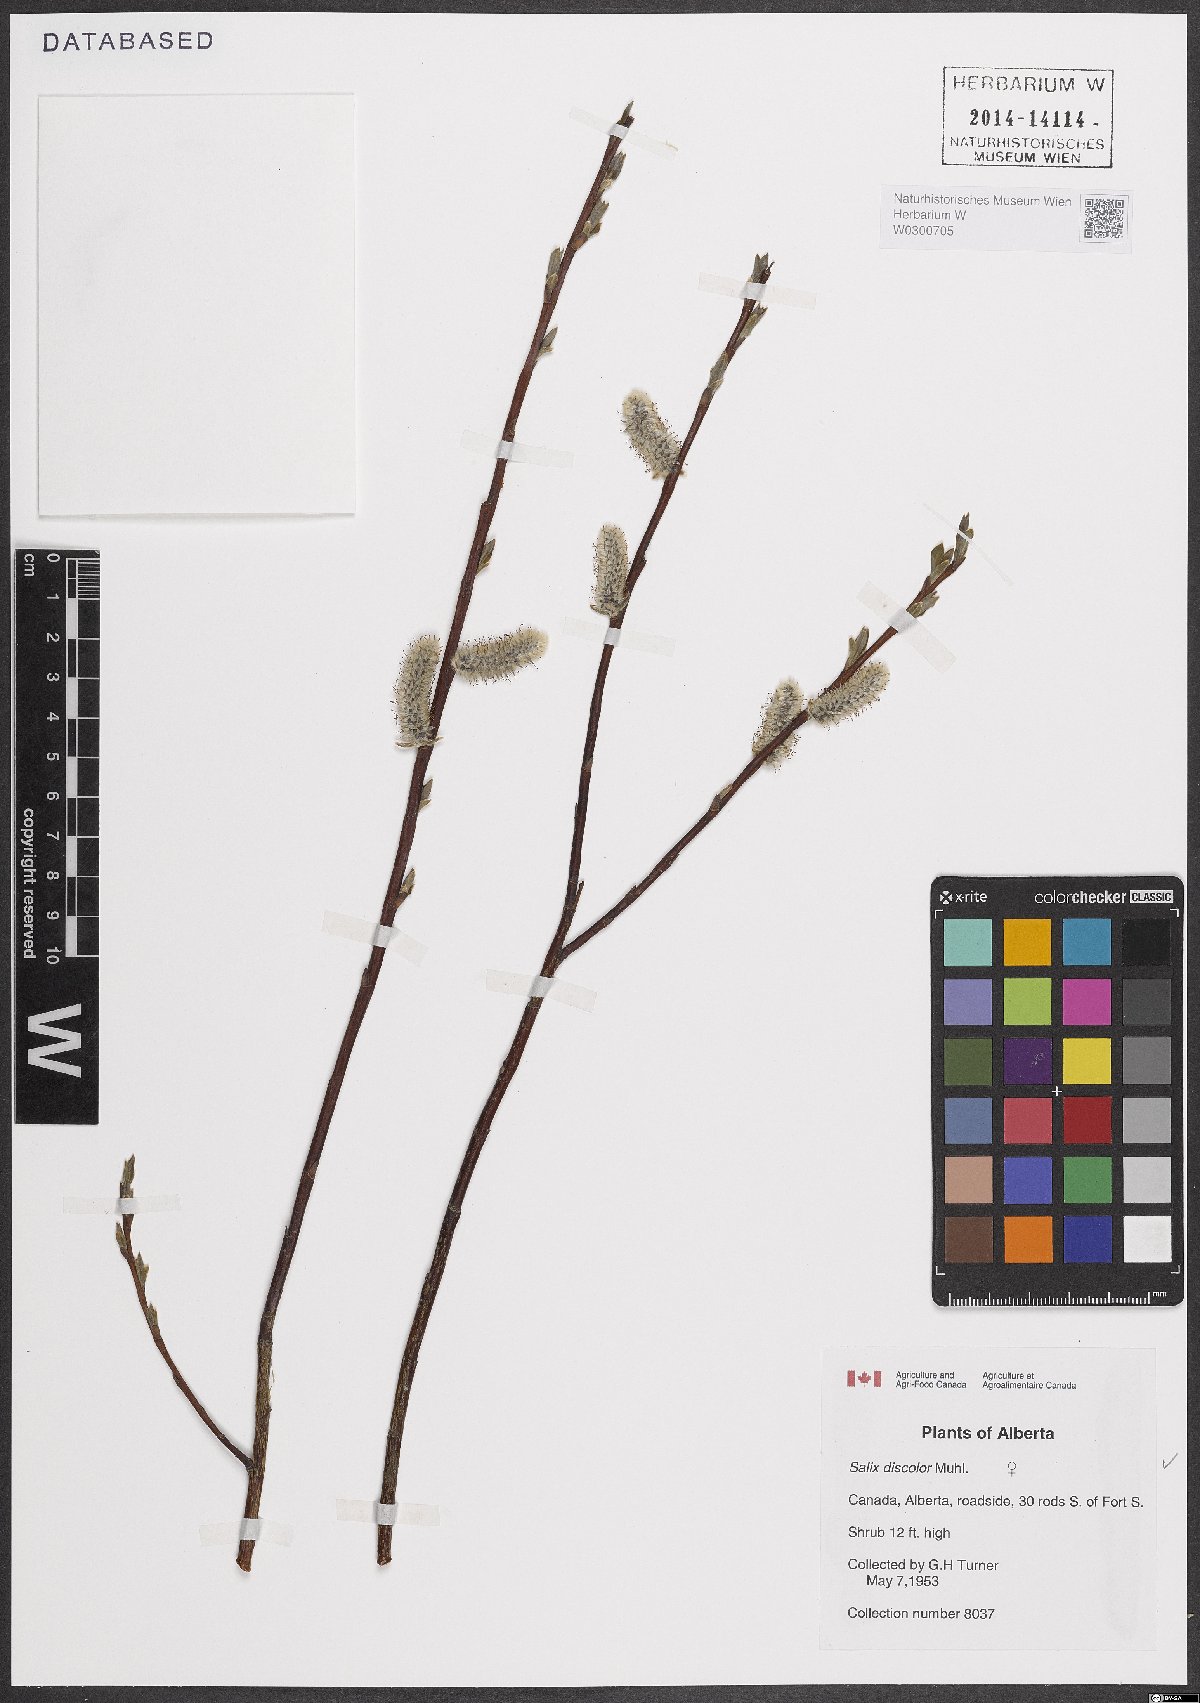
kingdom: Plantae
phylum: Tracheophyta
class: Magnoliopsida
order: Malpighiales
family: Salicaceae
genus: Salix
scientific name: Salix discolor
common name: Glaucous willow
